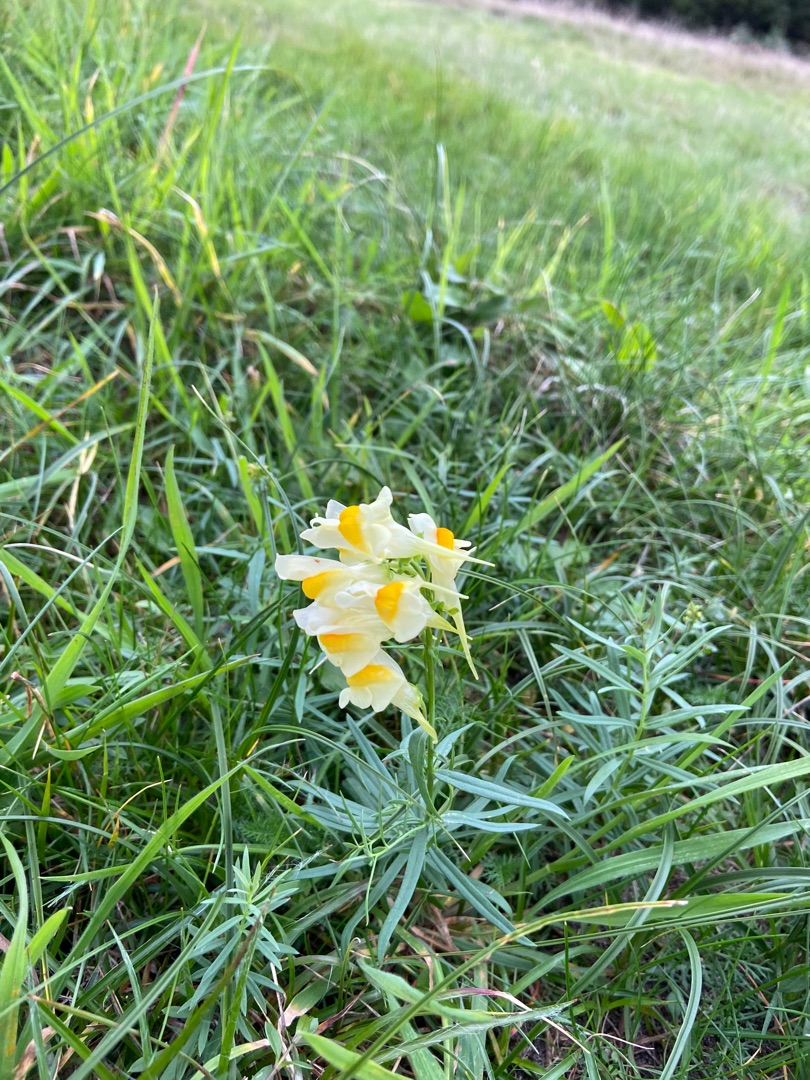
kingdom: Plantae
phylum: Tracheophyta
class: Magnoliopsida
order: Lamiales
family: Plantaginaceae
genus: Linaria
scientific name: Linaria vulgaris
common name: Almindelig torskemund
